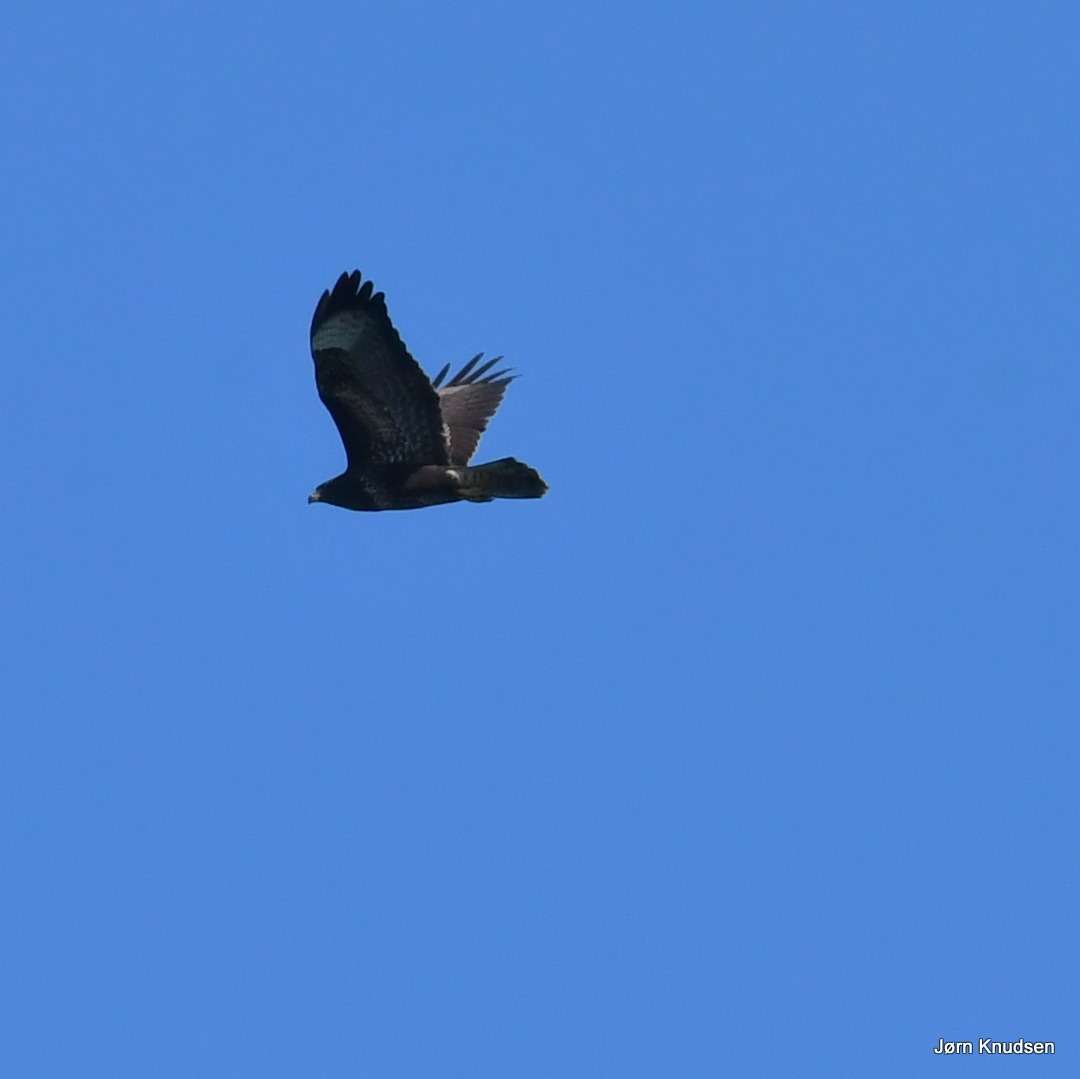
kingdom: Animalia
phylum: Chordata
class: Aves
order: Accipitriformes
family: Accipitridae
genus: Buteo
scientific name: Buteo buteo
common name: Musvåge
